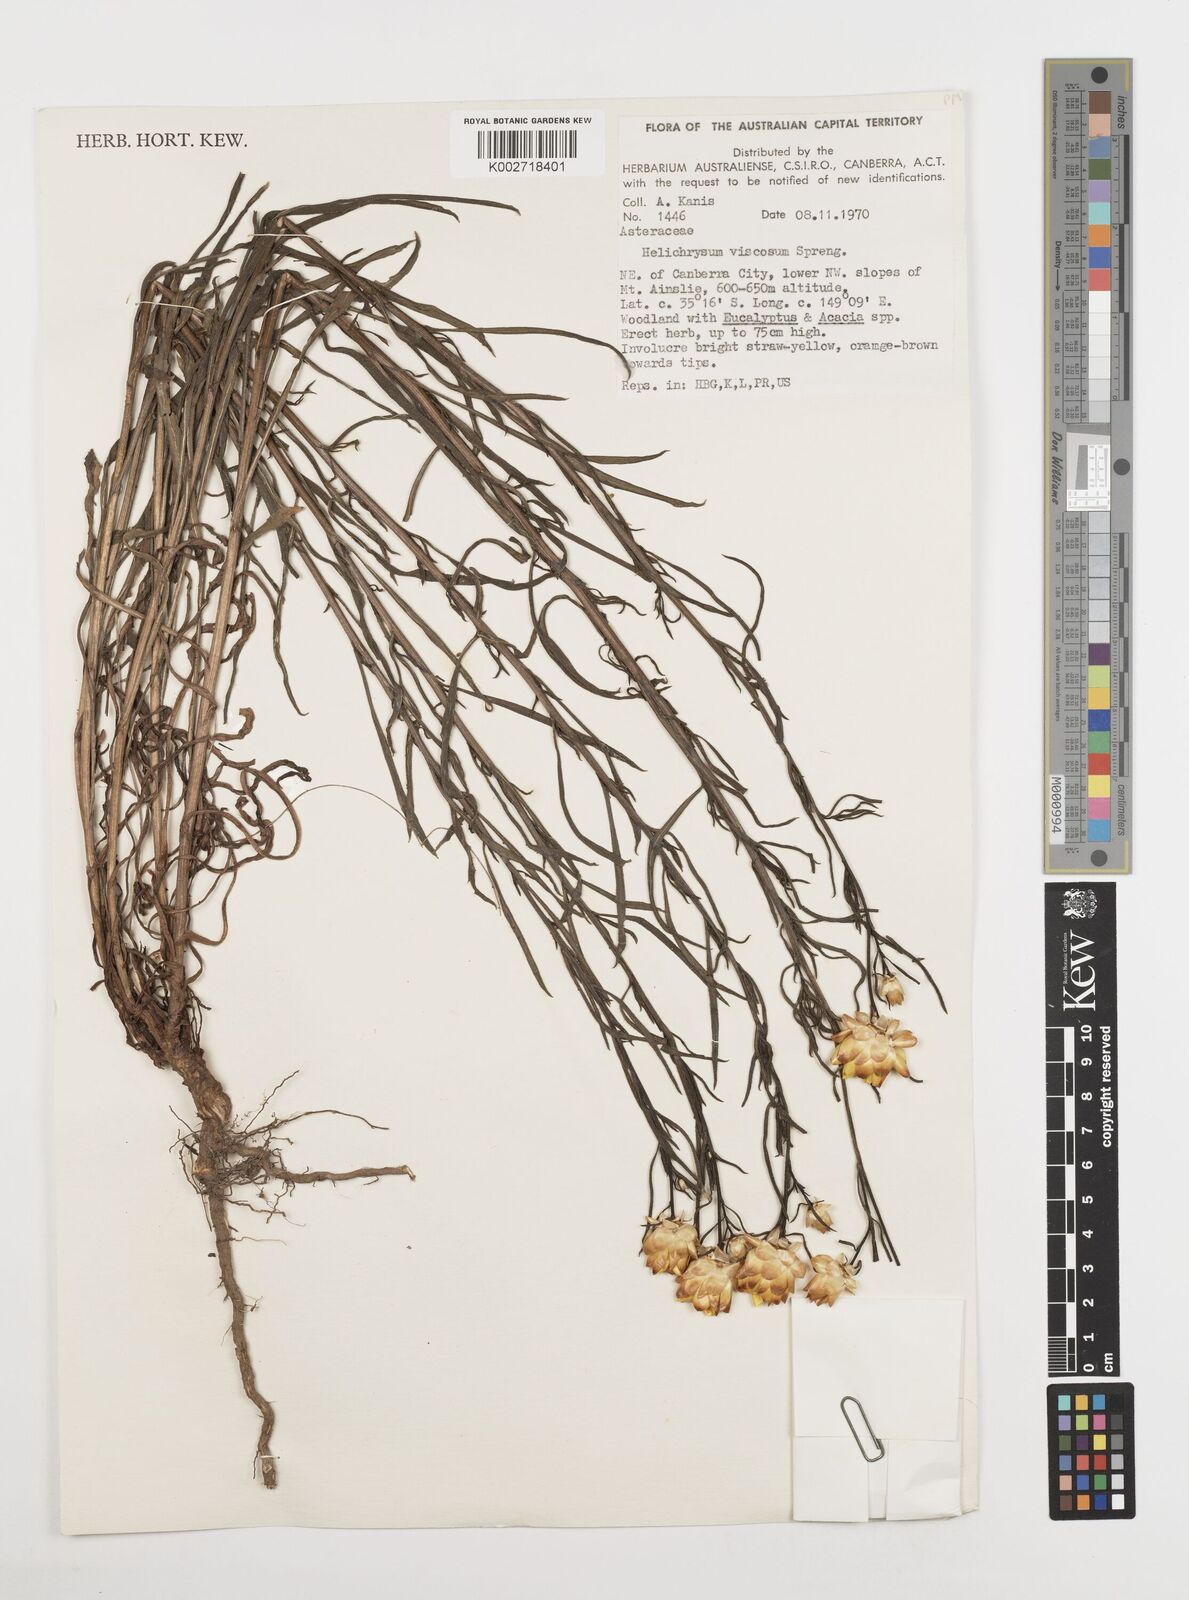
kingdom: Plantae
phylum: Tracheophyta
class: Magnoliopsida
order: Asterales
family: Asteraceae
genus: Xerochrysum
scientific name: Xerochrysum viscosum
